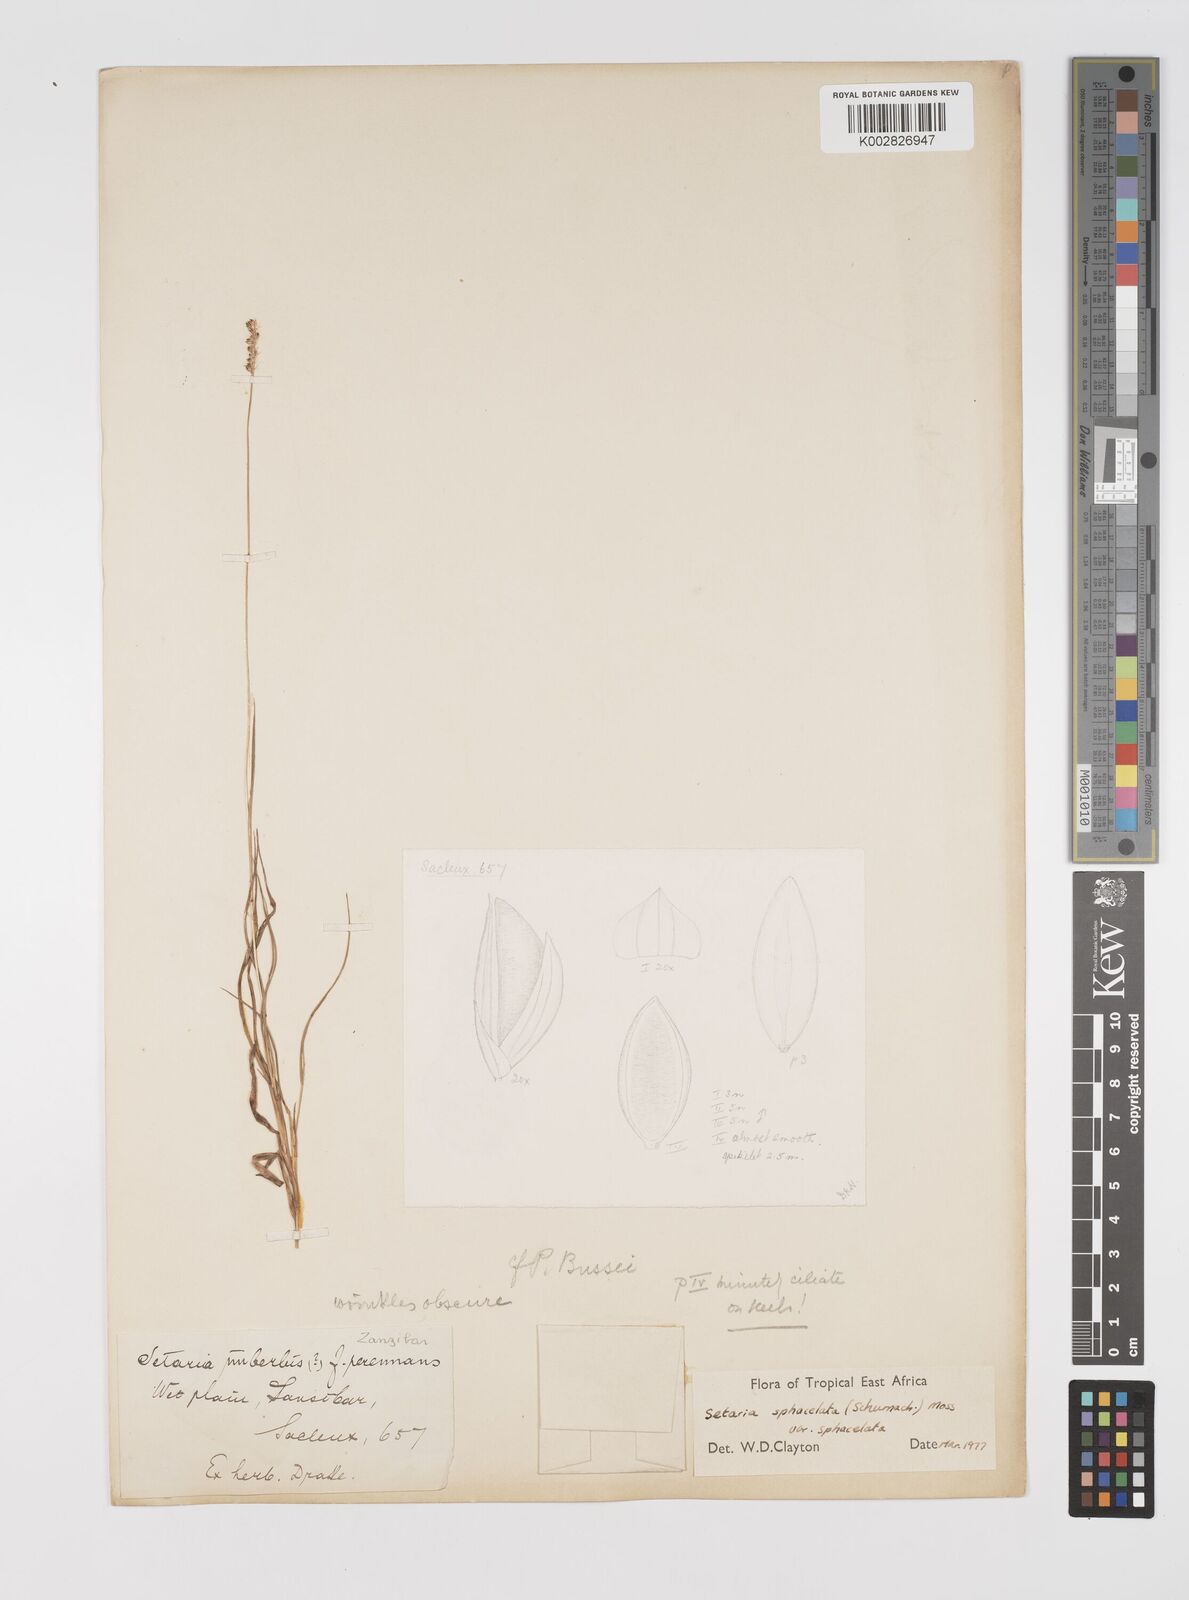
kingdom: Plantae
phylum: Tracheophyta
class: Liliopsida
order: Poales
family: Poaceae
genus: Setaria
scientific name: Setaria sphacelata
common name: African bristlegrass
